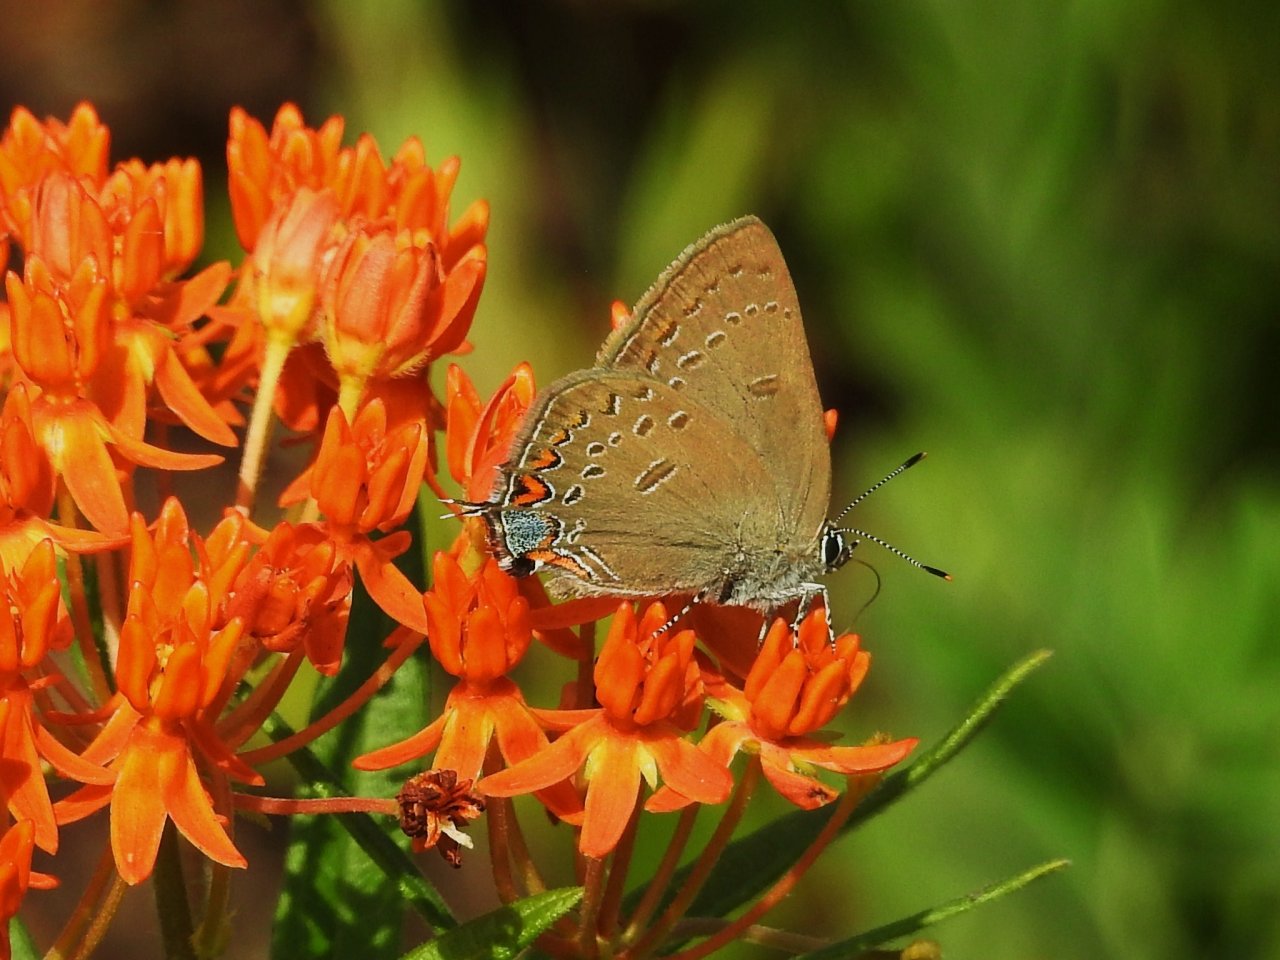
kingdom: Animalia
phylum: Arthropoda
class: Insecta
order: Lepidoptera
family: Lycaenidae
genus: Satyrium
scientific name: Satyrium edwardsii
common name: Edwards' Hairstreak
